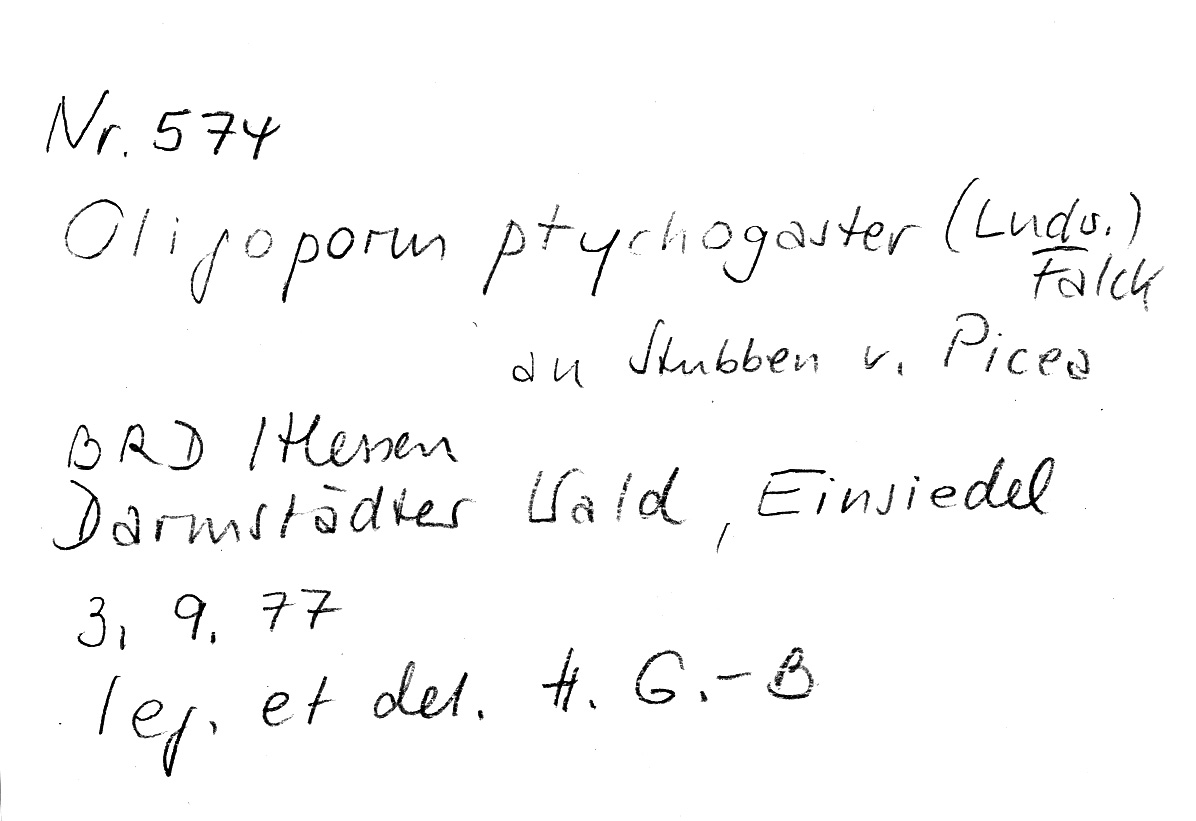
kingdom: Plantae
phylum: Tracheophyta
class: Pinopsida
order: Pinales
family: Pinaceae
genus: Picea
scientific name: Picea
